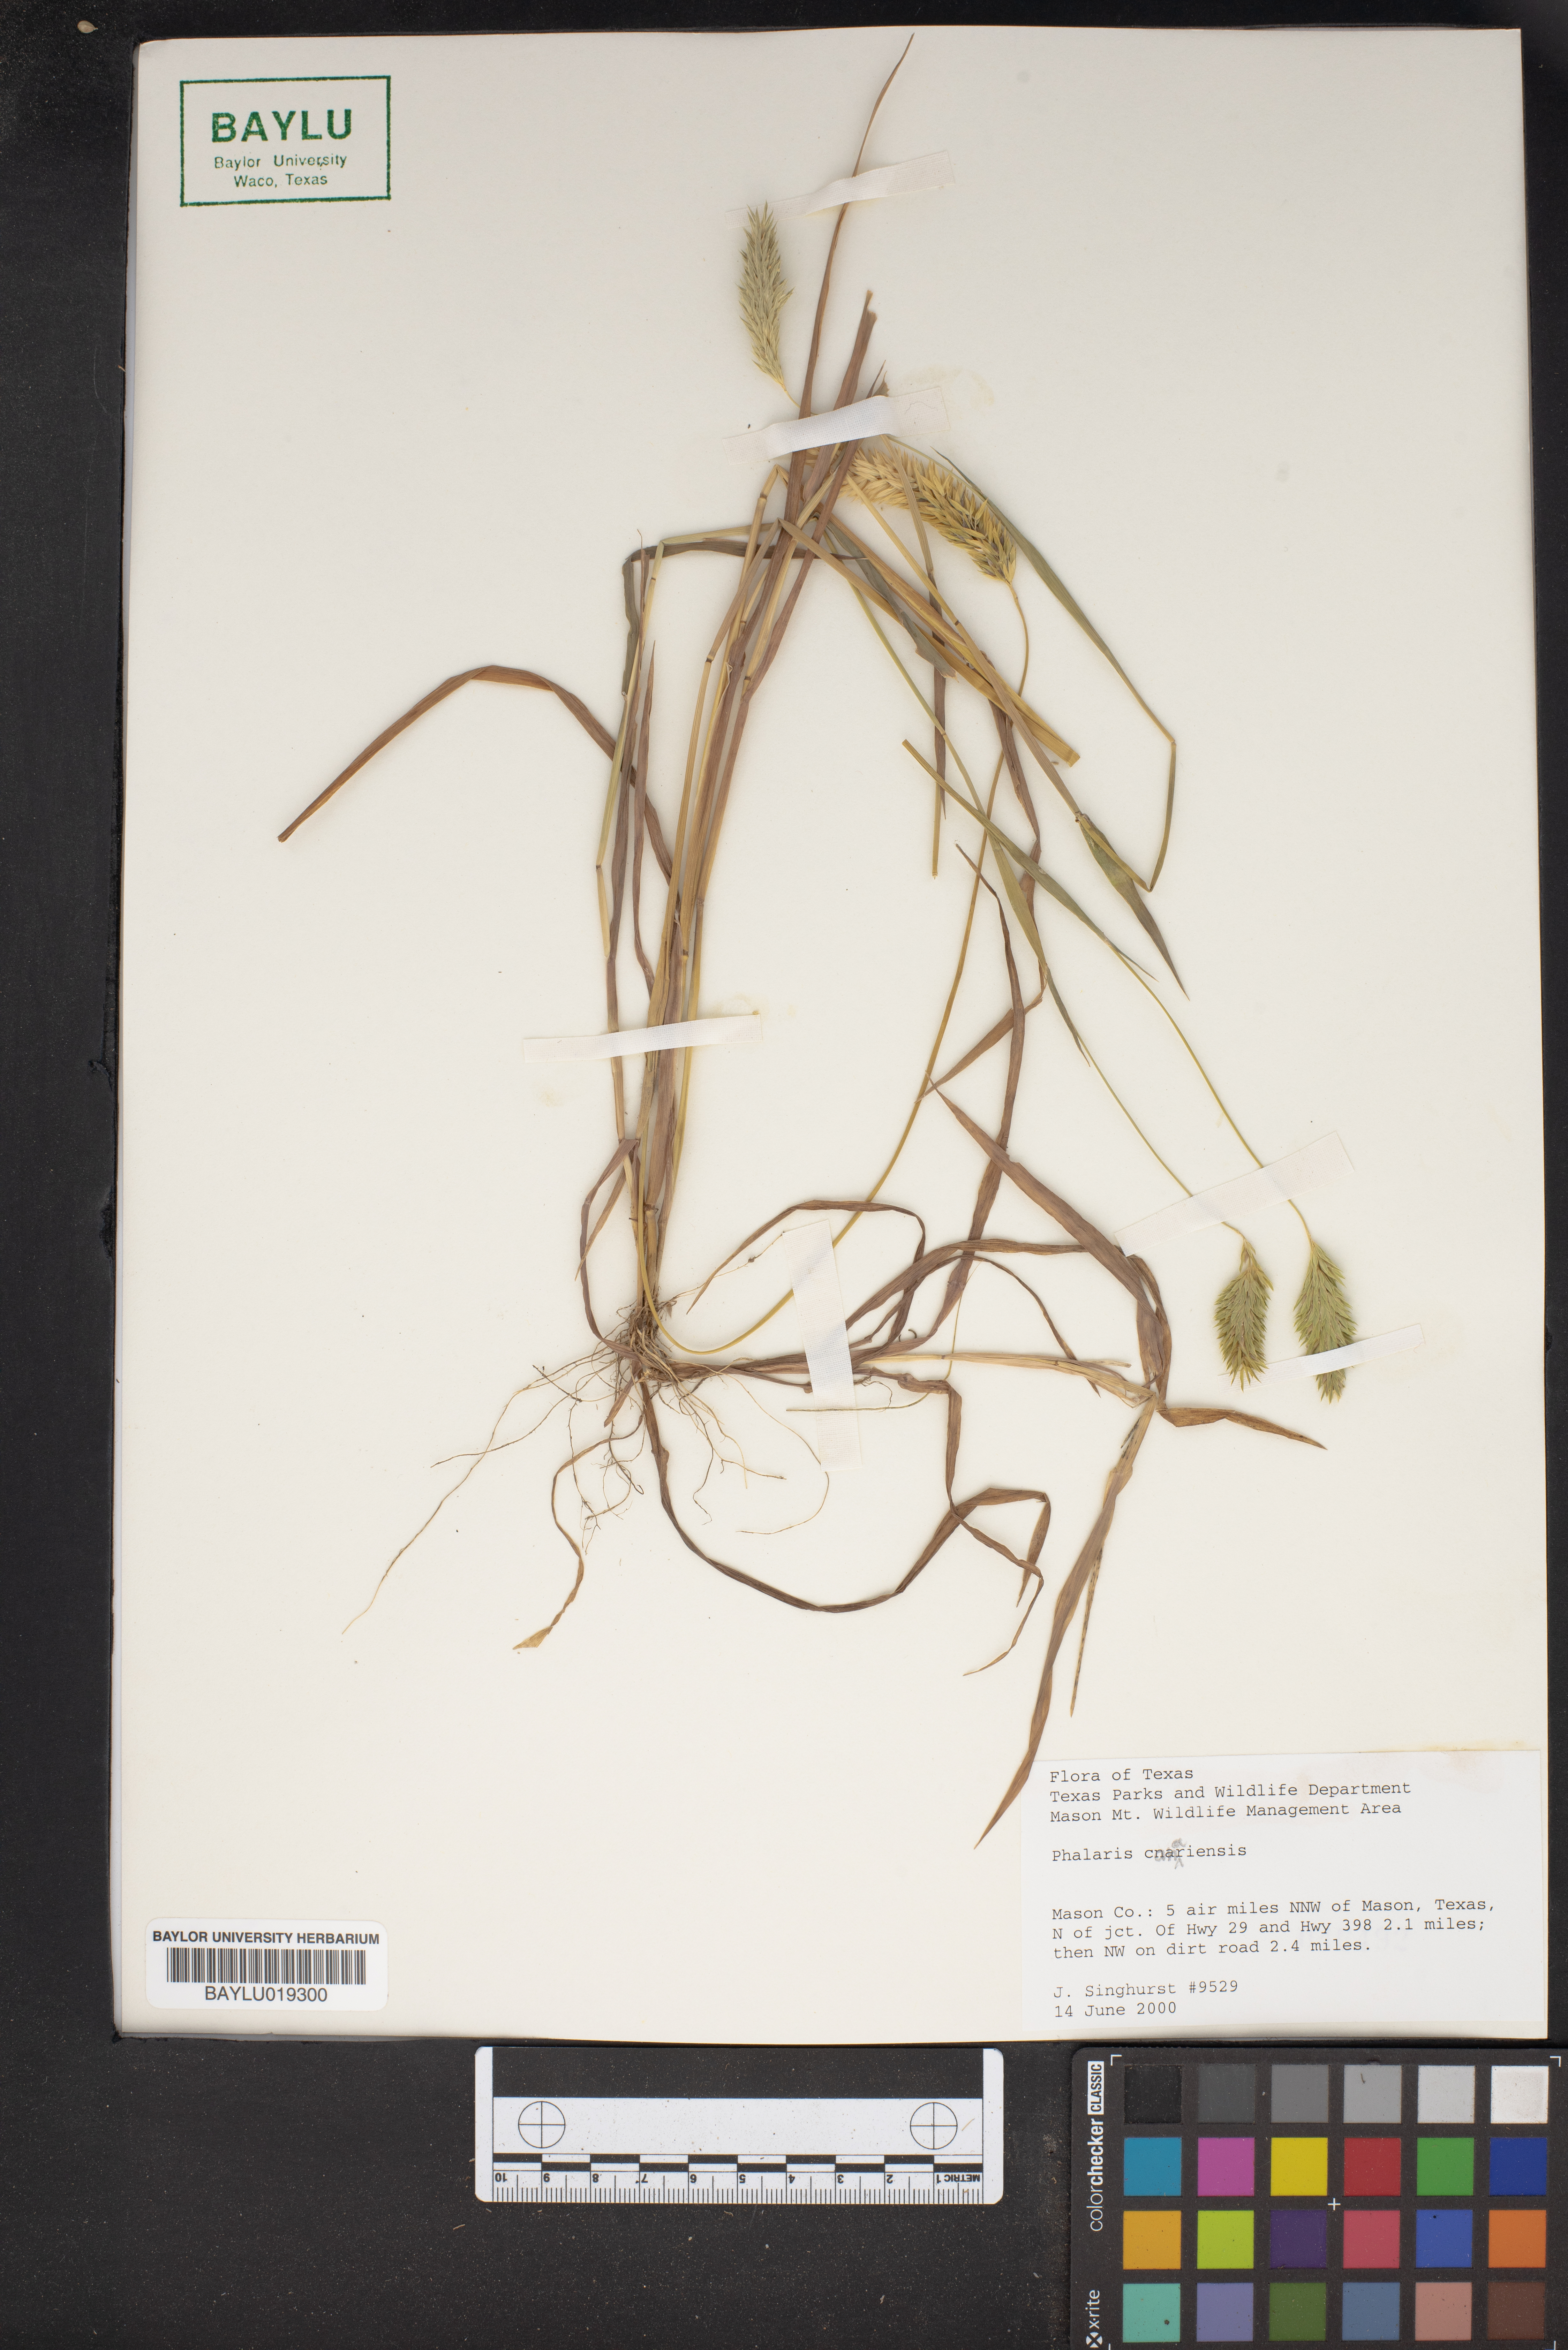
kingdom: Plantae
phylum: Tracheophyta
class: Liliopsida
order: Poales
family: Poaceae
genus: Phalaris
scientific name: Phalaris canariensis
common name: Annual canarygrass
